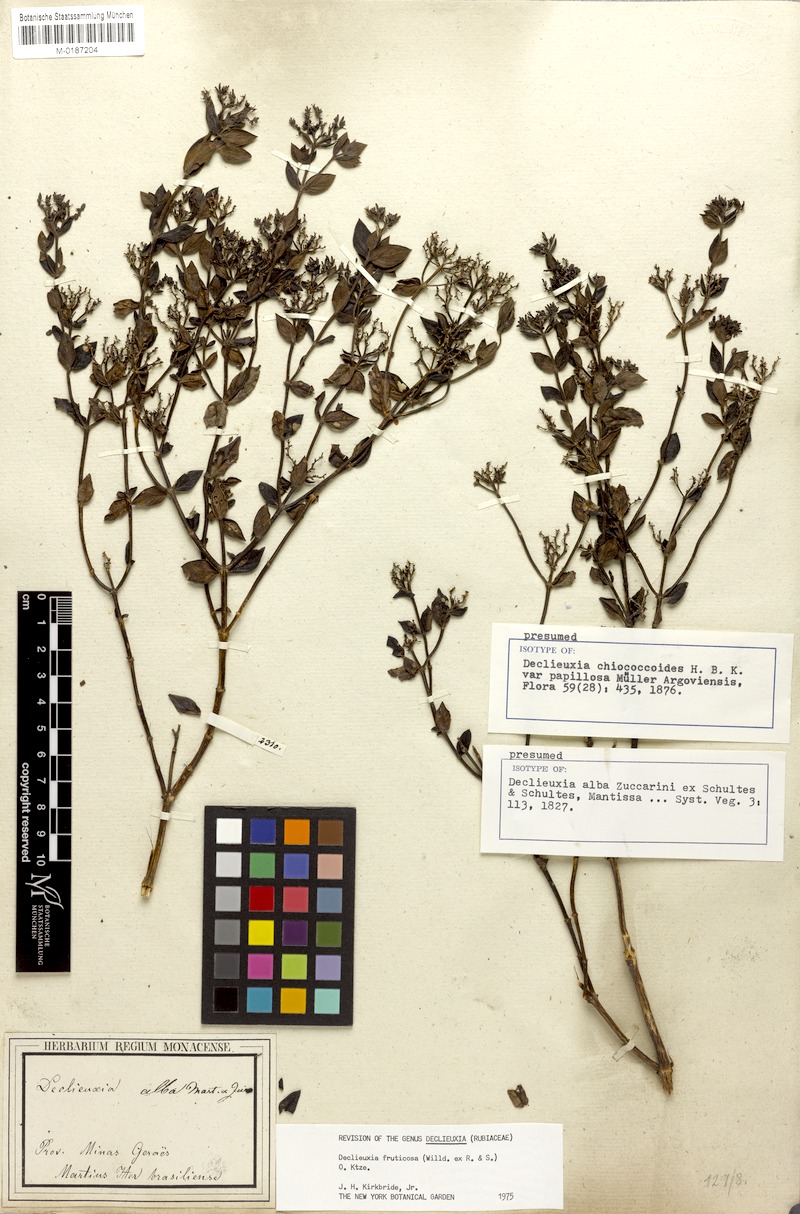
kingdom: Plantae
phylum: Tracheophyta
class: Magnoliopsida
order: Gentianales
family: Rubiaceae
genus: Declieuxia
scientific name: Declieuxia fruticosa
